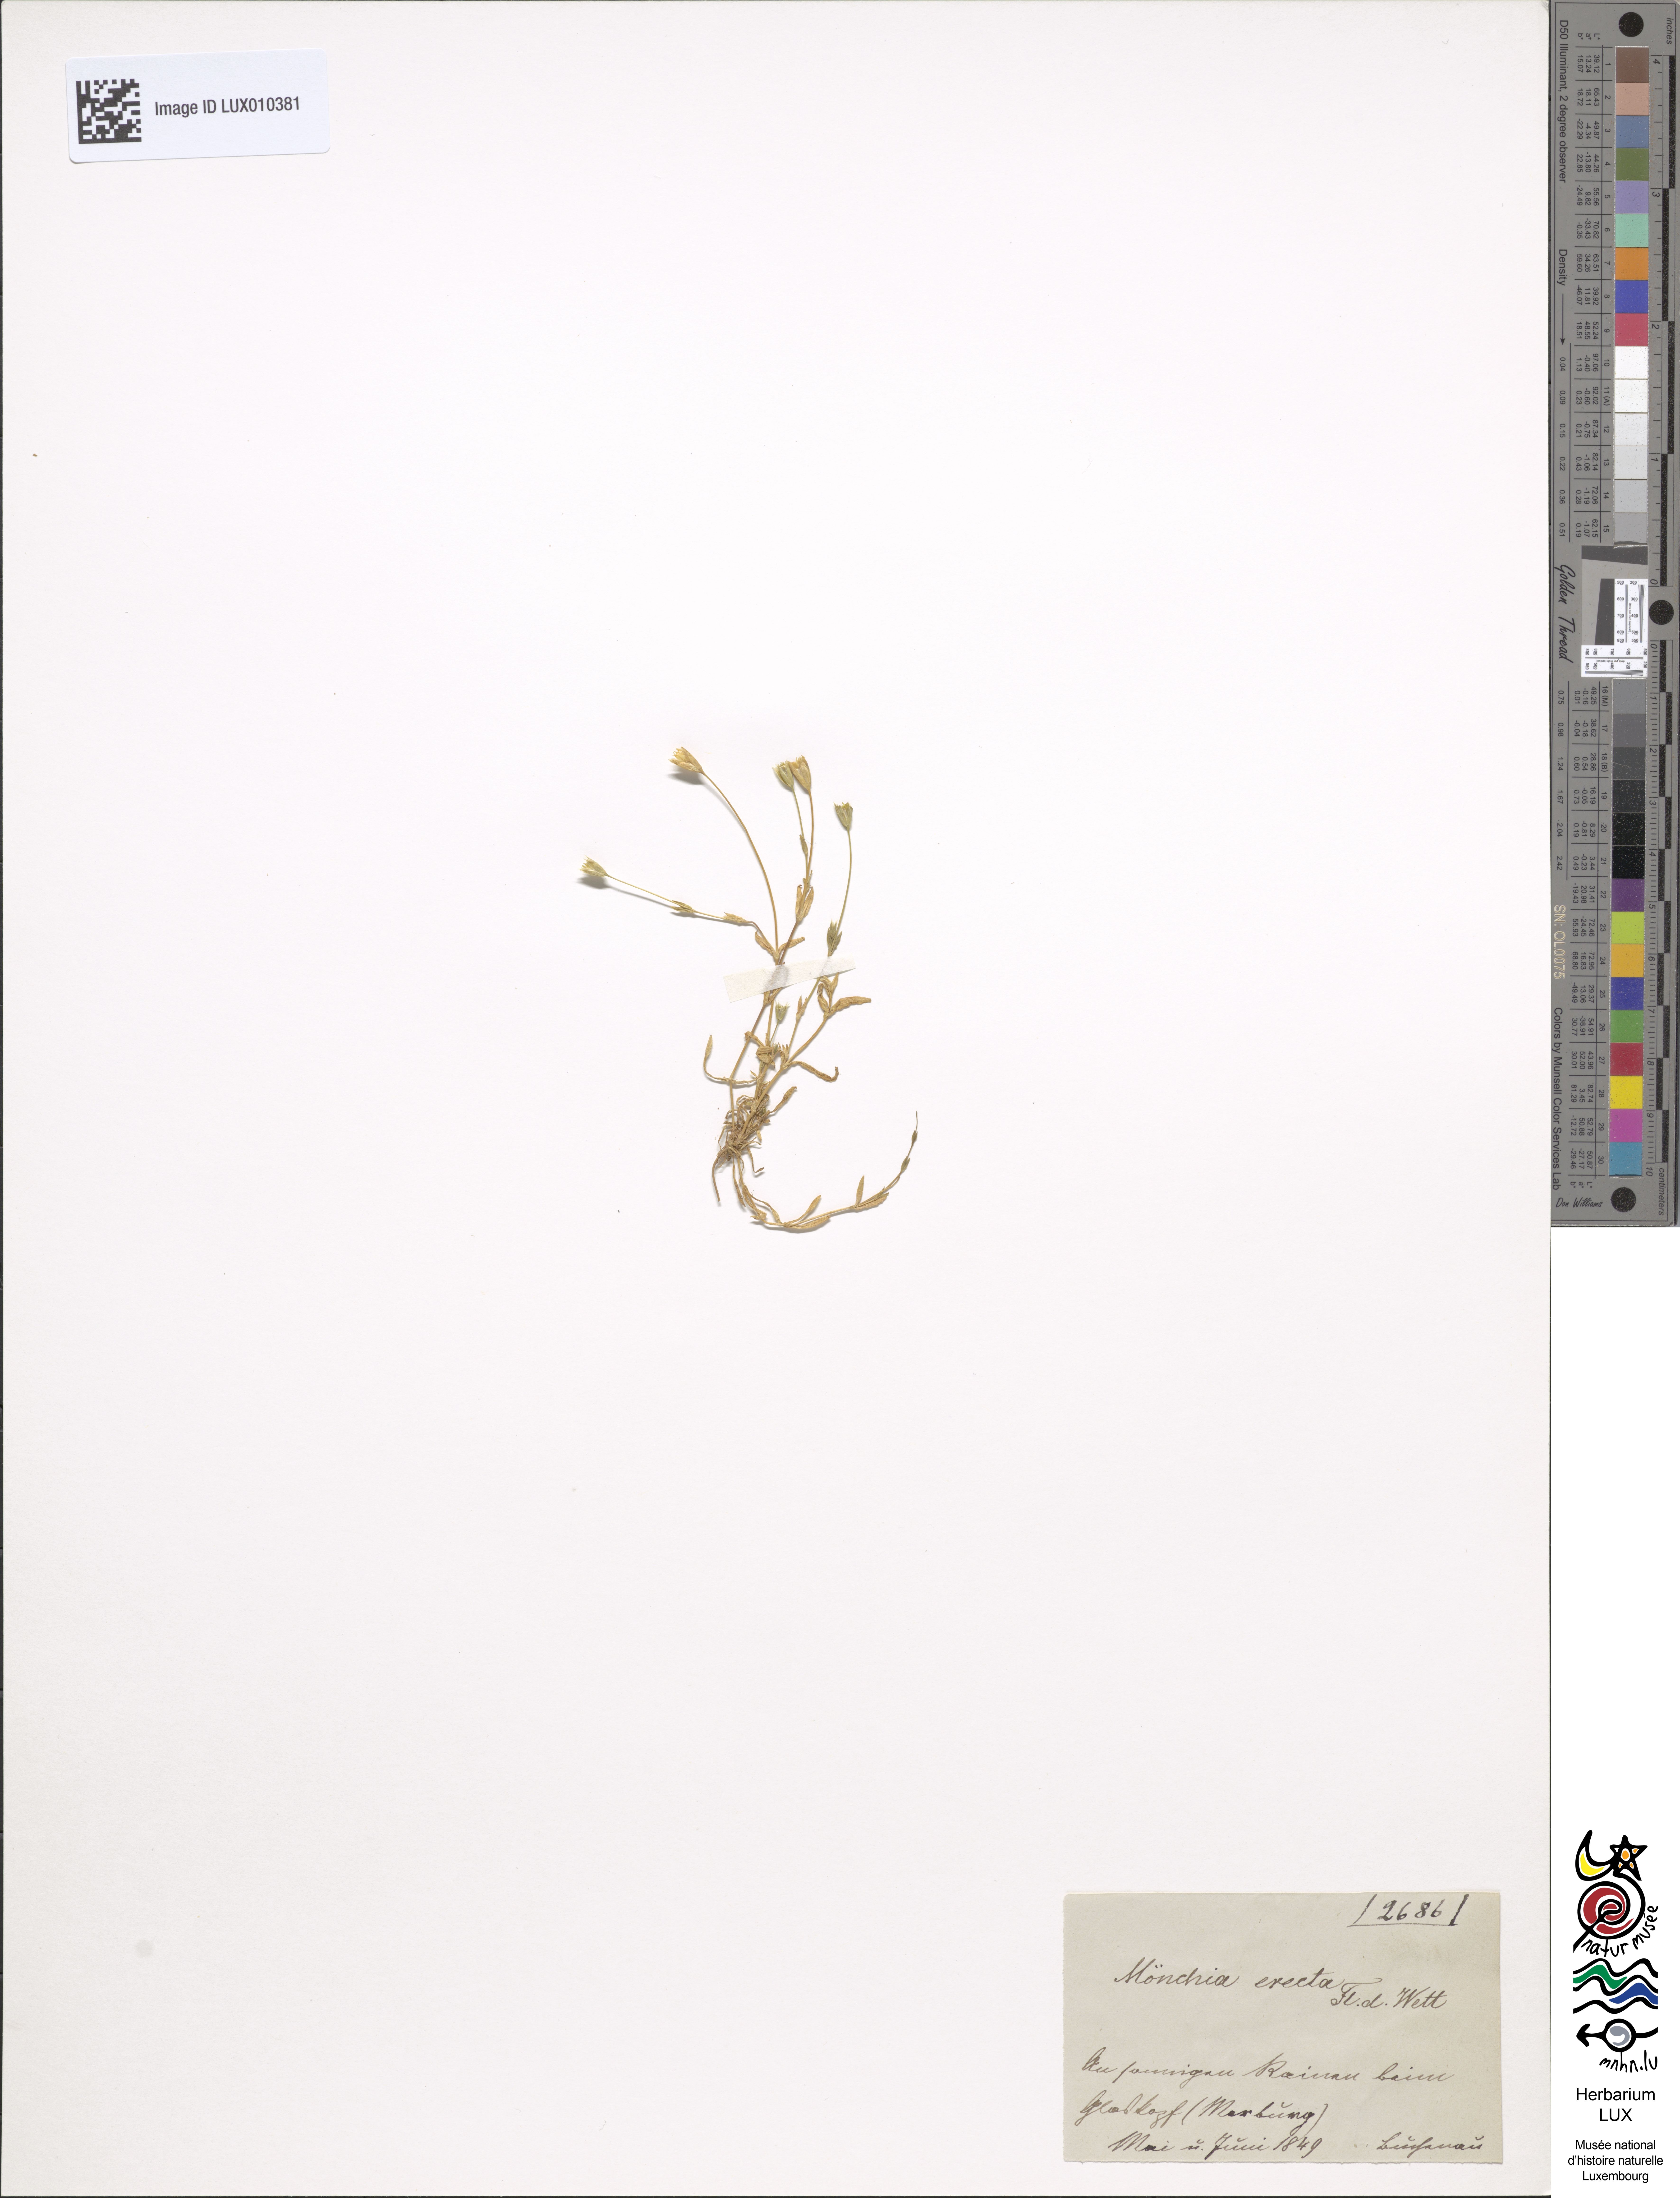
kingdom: Plantae
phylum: Tracheophyta
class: Magnoliopsida
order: Caryophyllales
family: Caryophyllaceae
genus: Moenchia
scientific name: Moenchia erecta
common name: Upright chickweed
